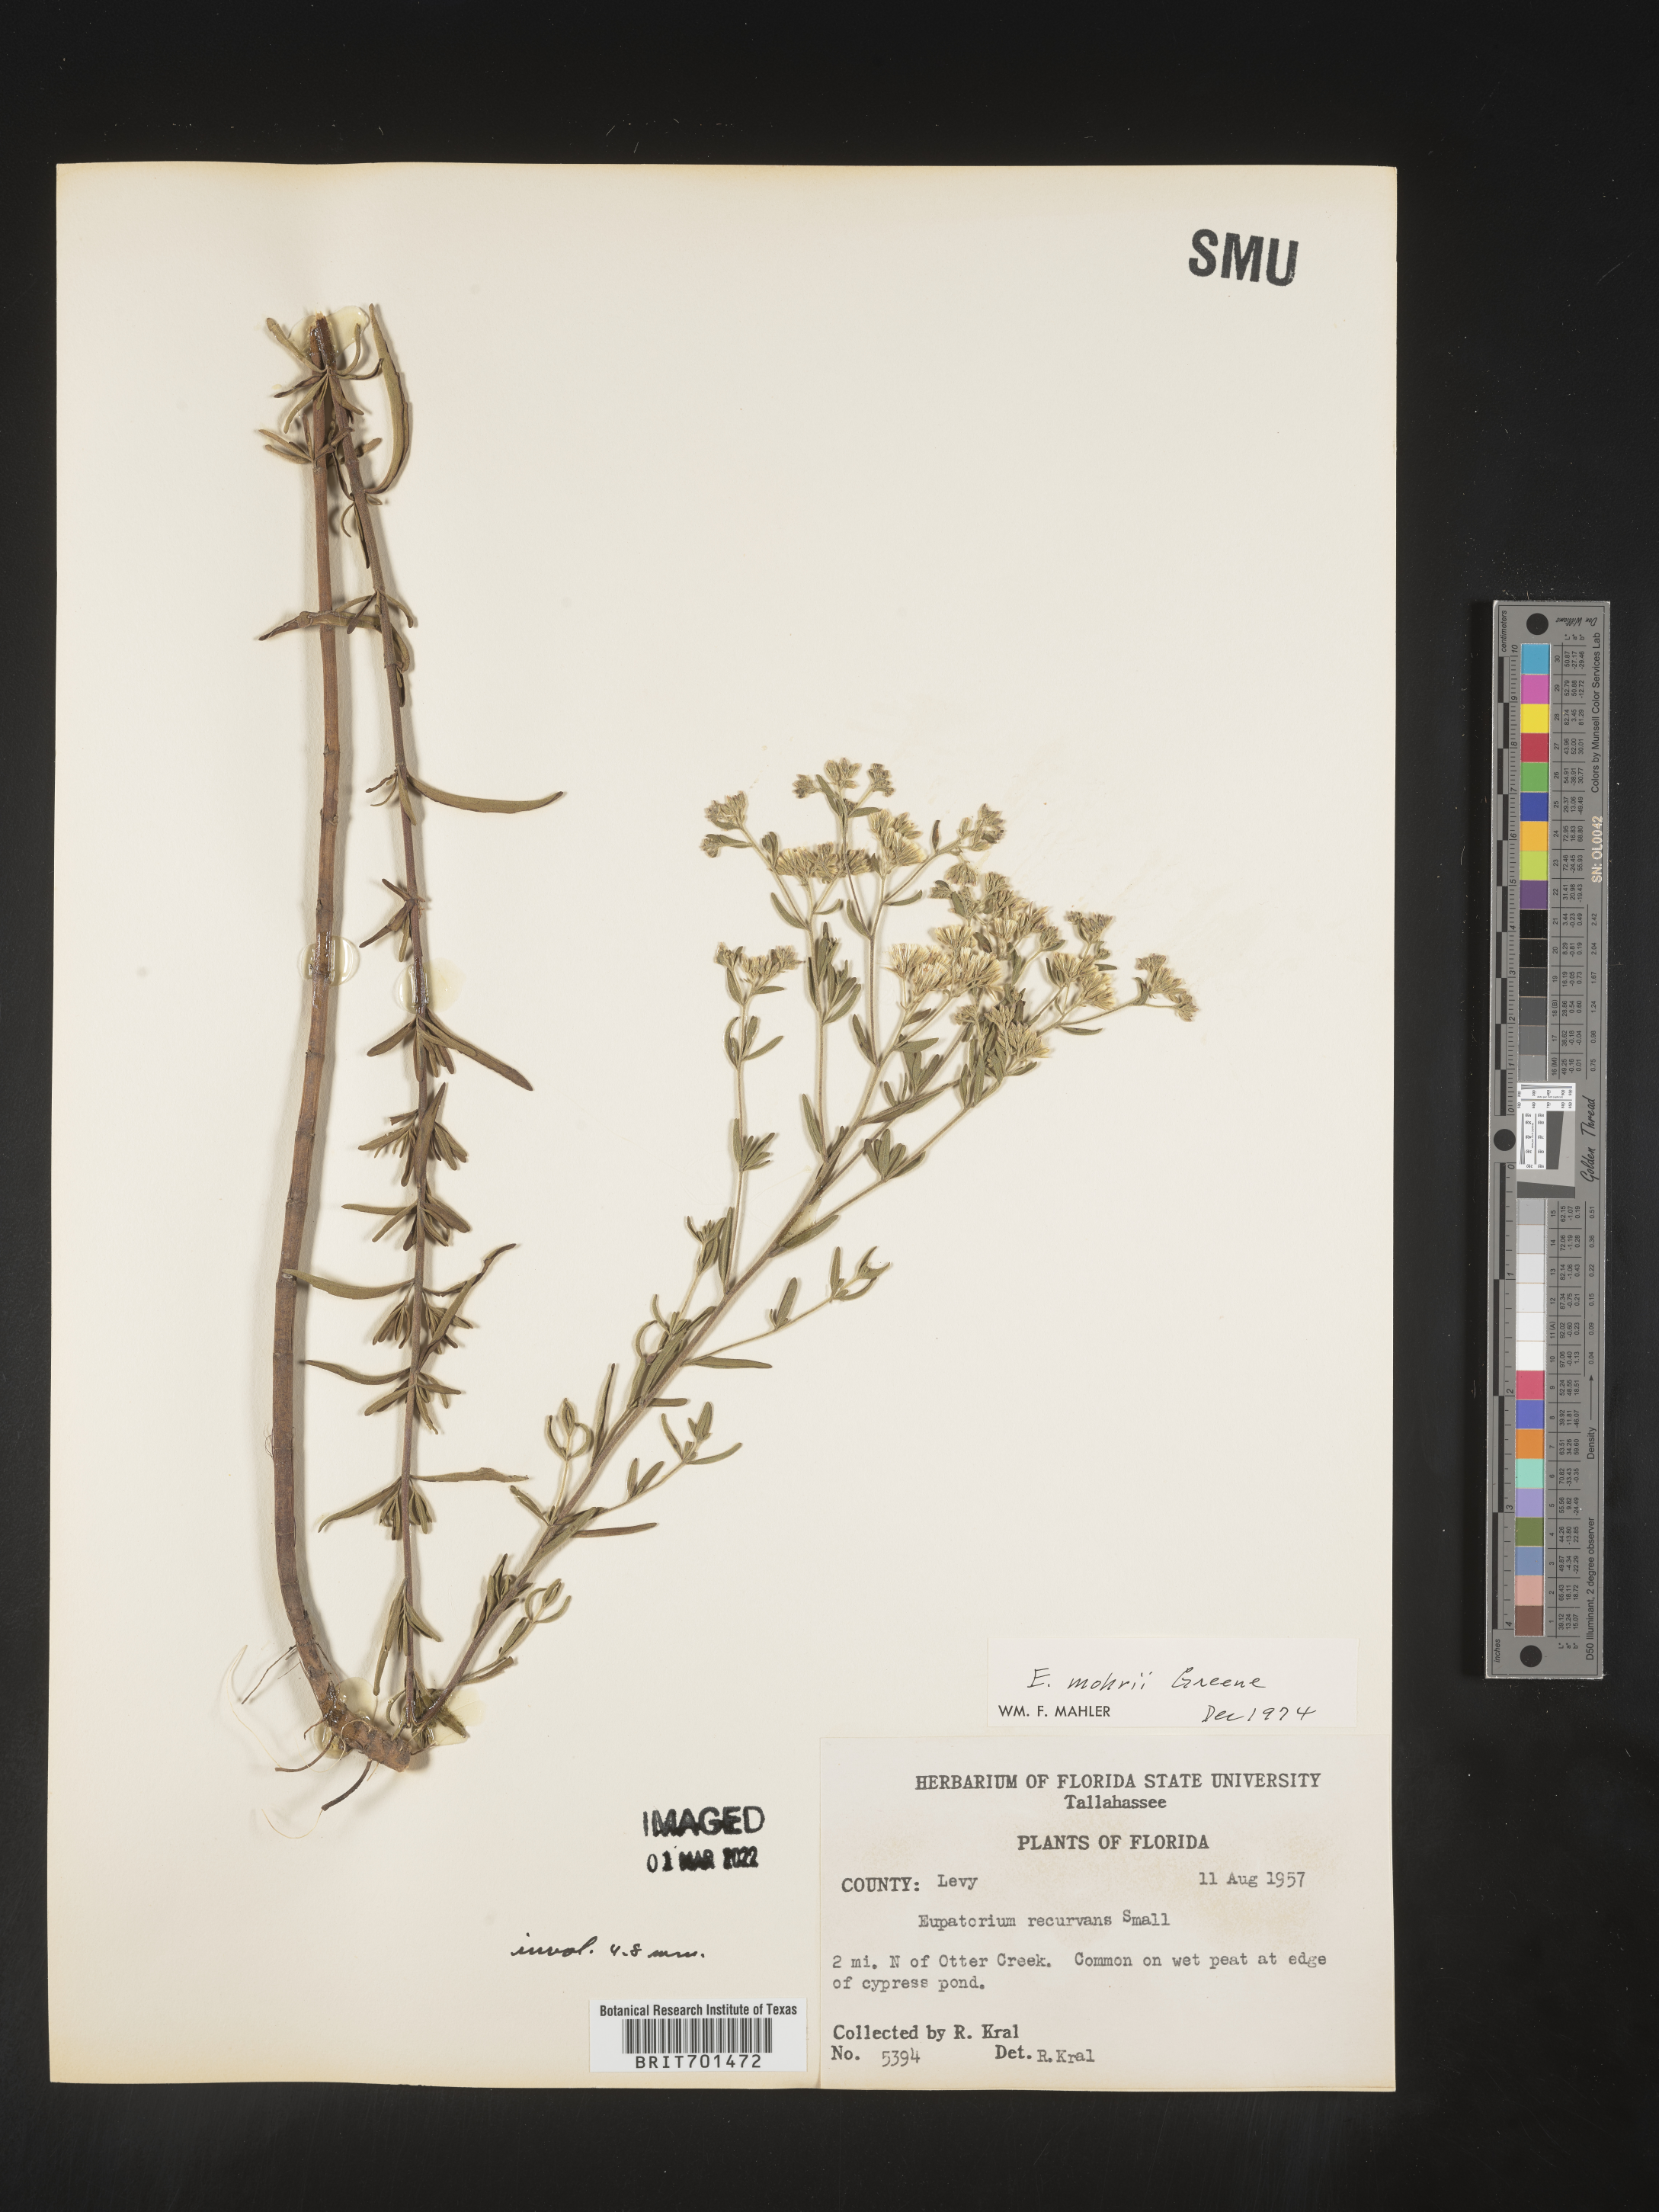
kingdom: Plantae
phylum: Tracheophyta
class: Magnoliopsida
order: Asterales
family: Asteraceae
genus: Eupatorium
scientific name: Eupatorium mohrii
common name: Mohr's thoroughwort
